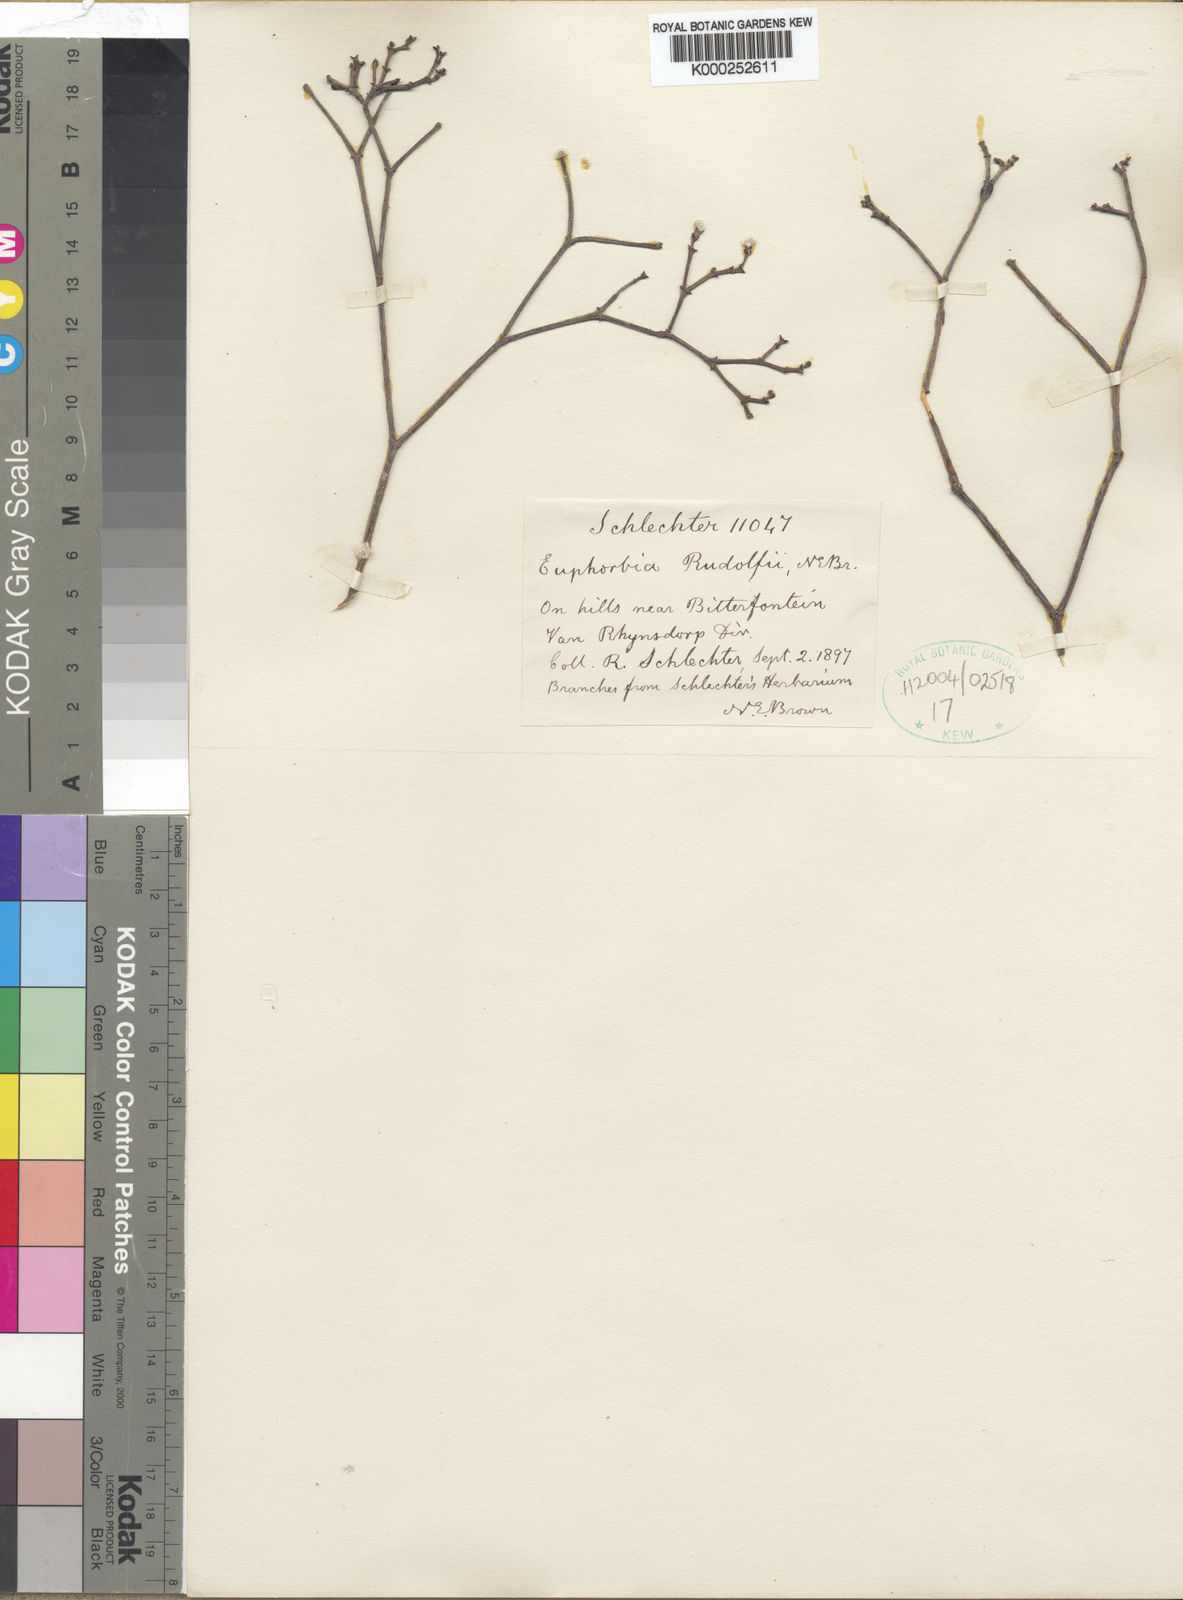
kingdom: Plantae
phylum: Tracheophyta
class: Magnoliopsida
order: Malpighiales
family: Euphorbiaceae
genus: Euphorbia
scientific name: Euphorbia rhombifolia
